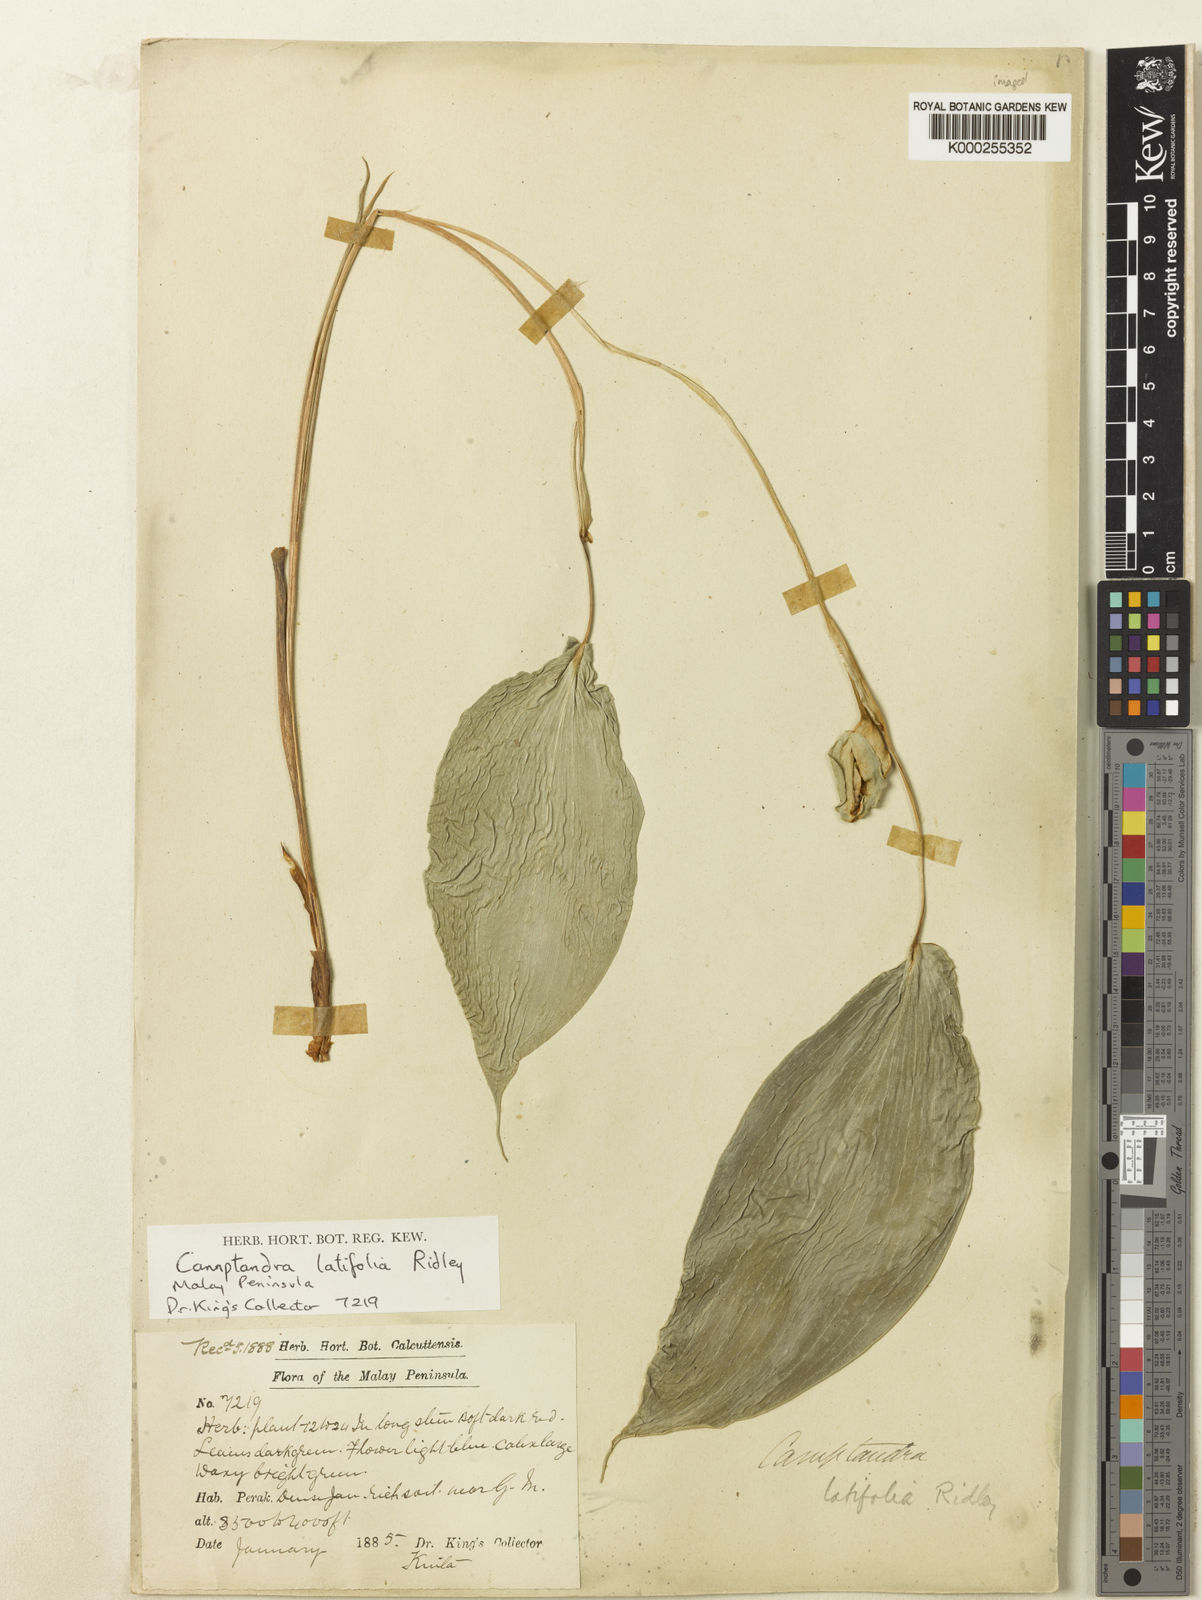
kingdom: Plantae
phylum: Tracheophyta
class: Liliopsida
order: Zingiberales
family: Zingiberaceae
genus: Camptandra
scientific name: Camptandra latifolia
